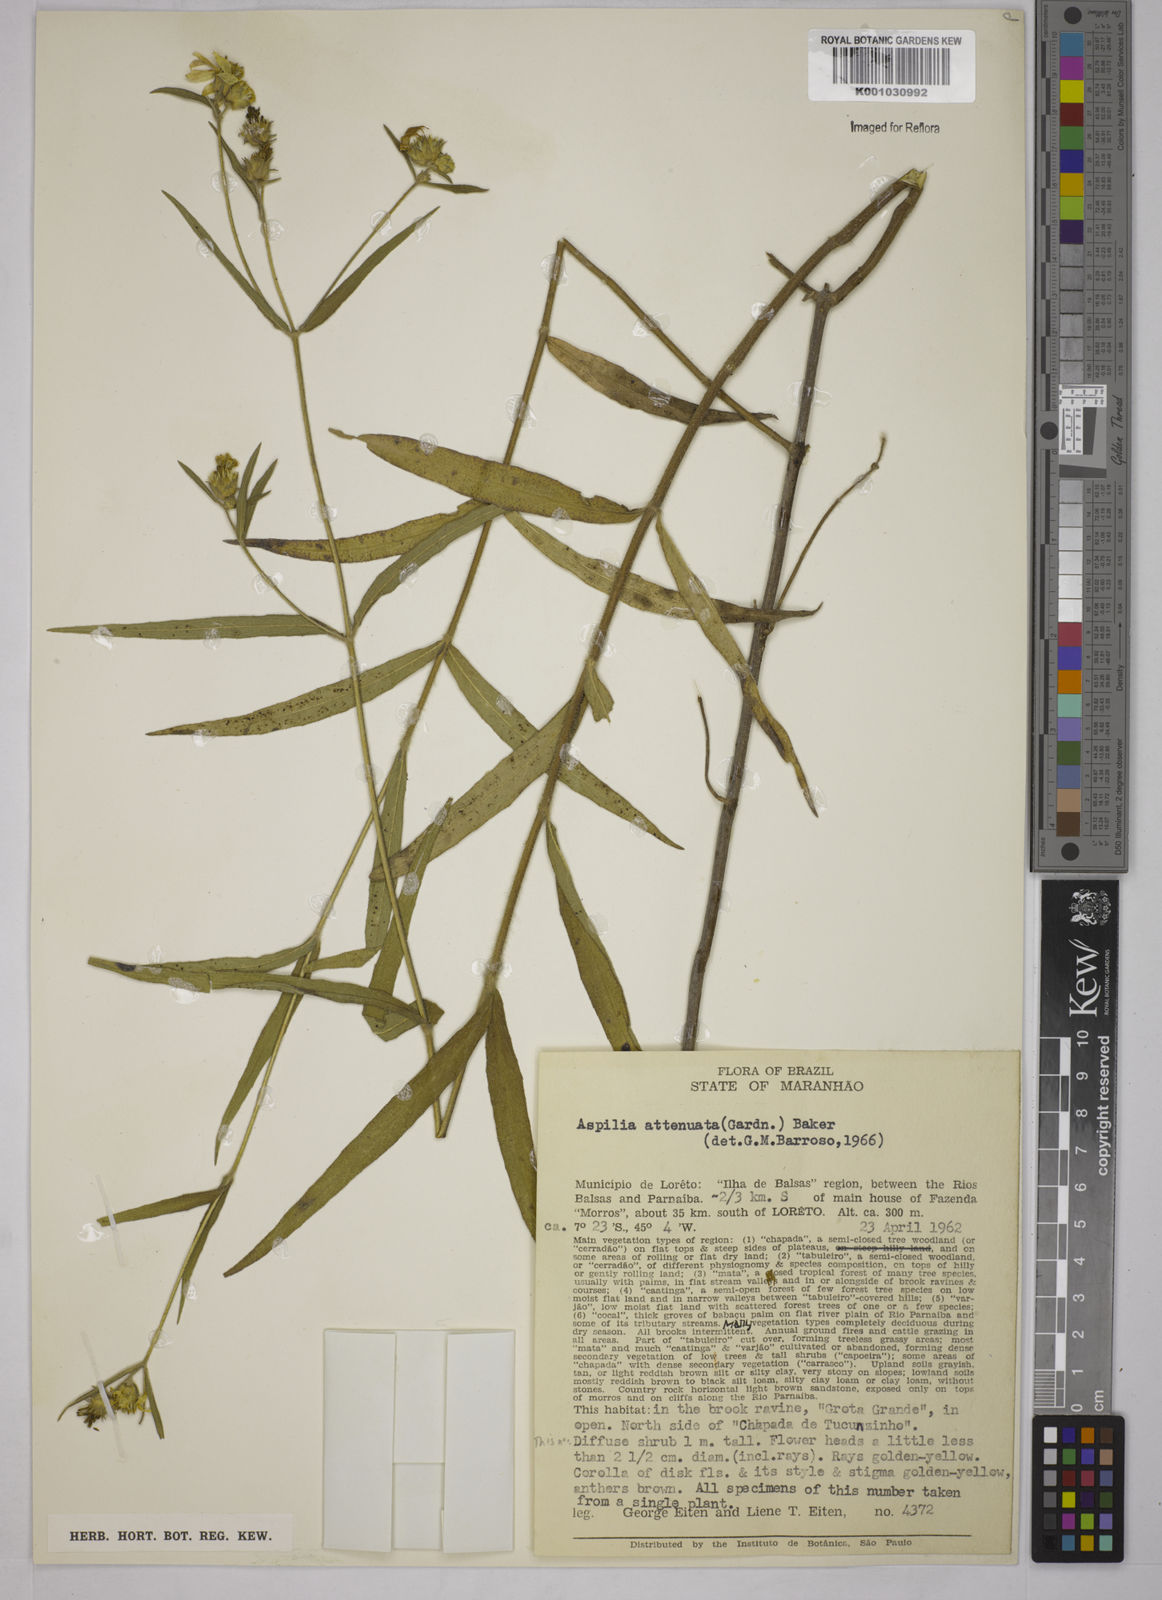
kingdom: Plantae
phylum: Tracheophyta
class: Magnoliopsida
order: Asterales
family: Asteraceae
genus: Wedelia
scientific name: Wedelia attenuata
